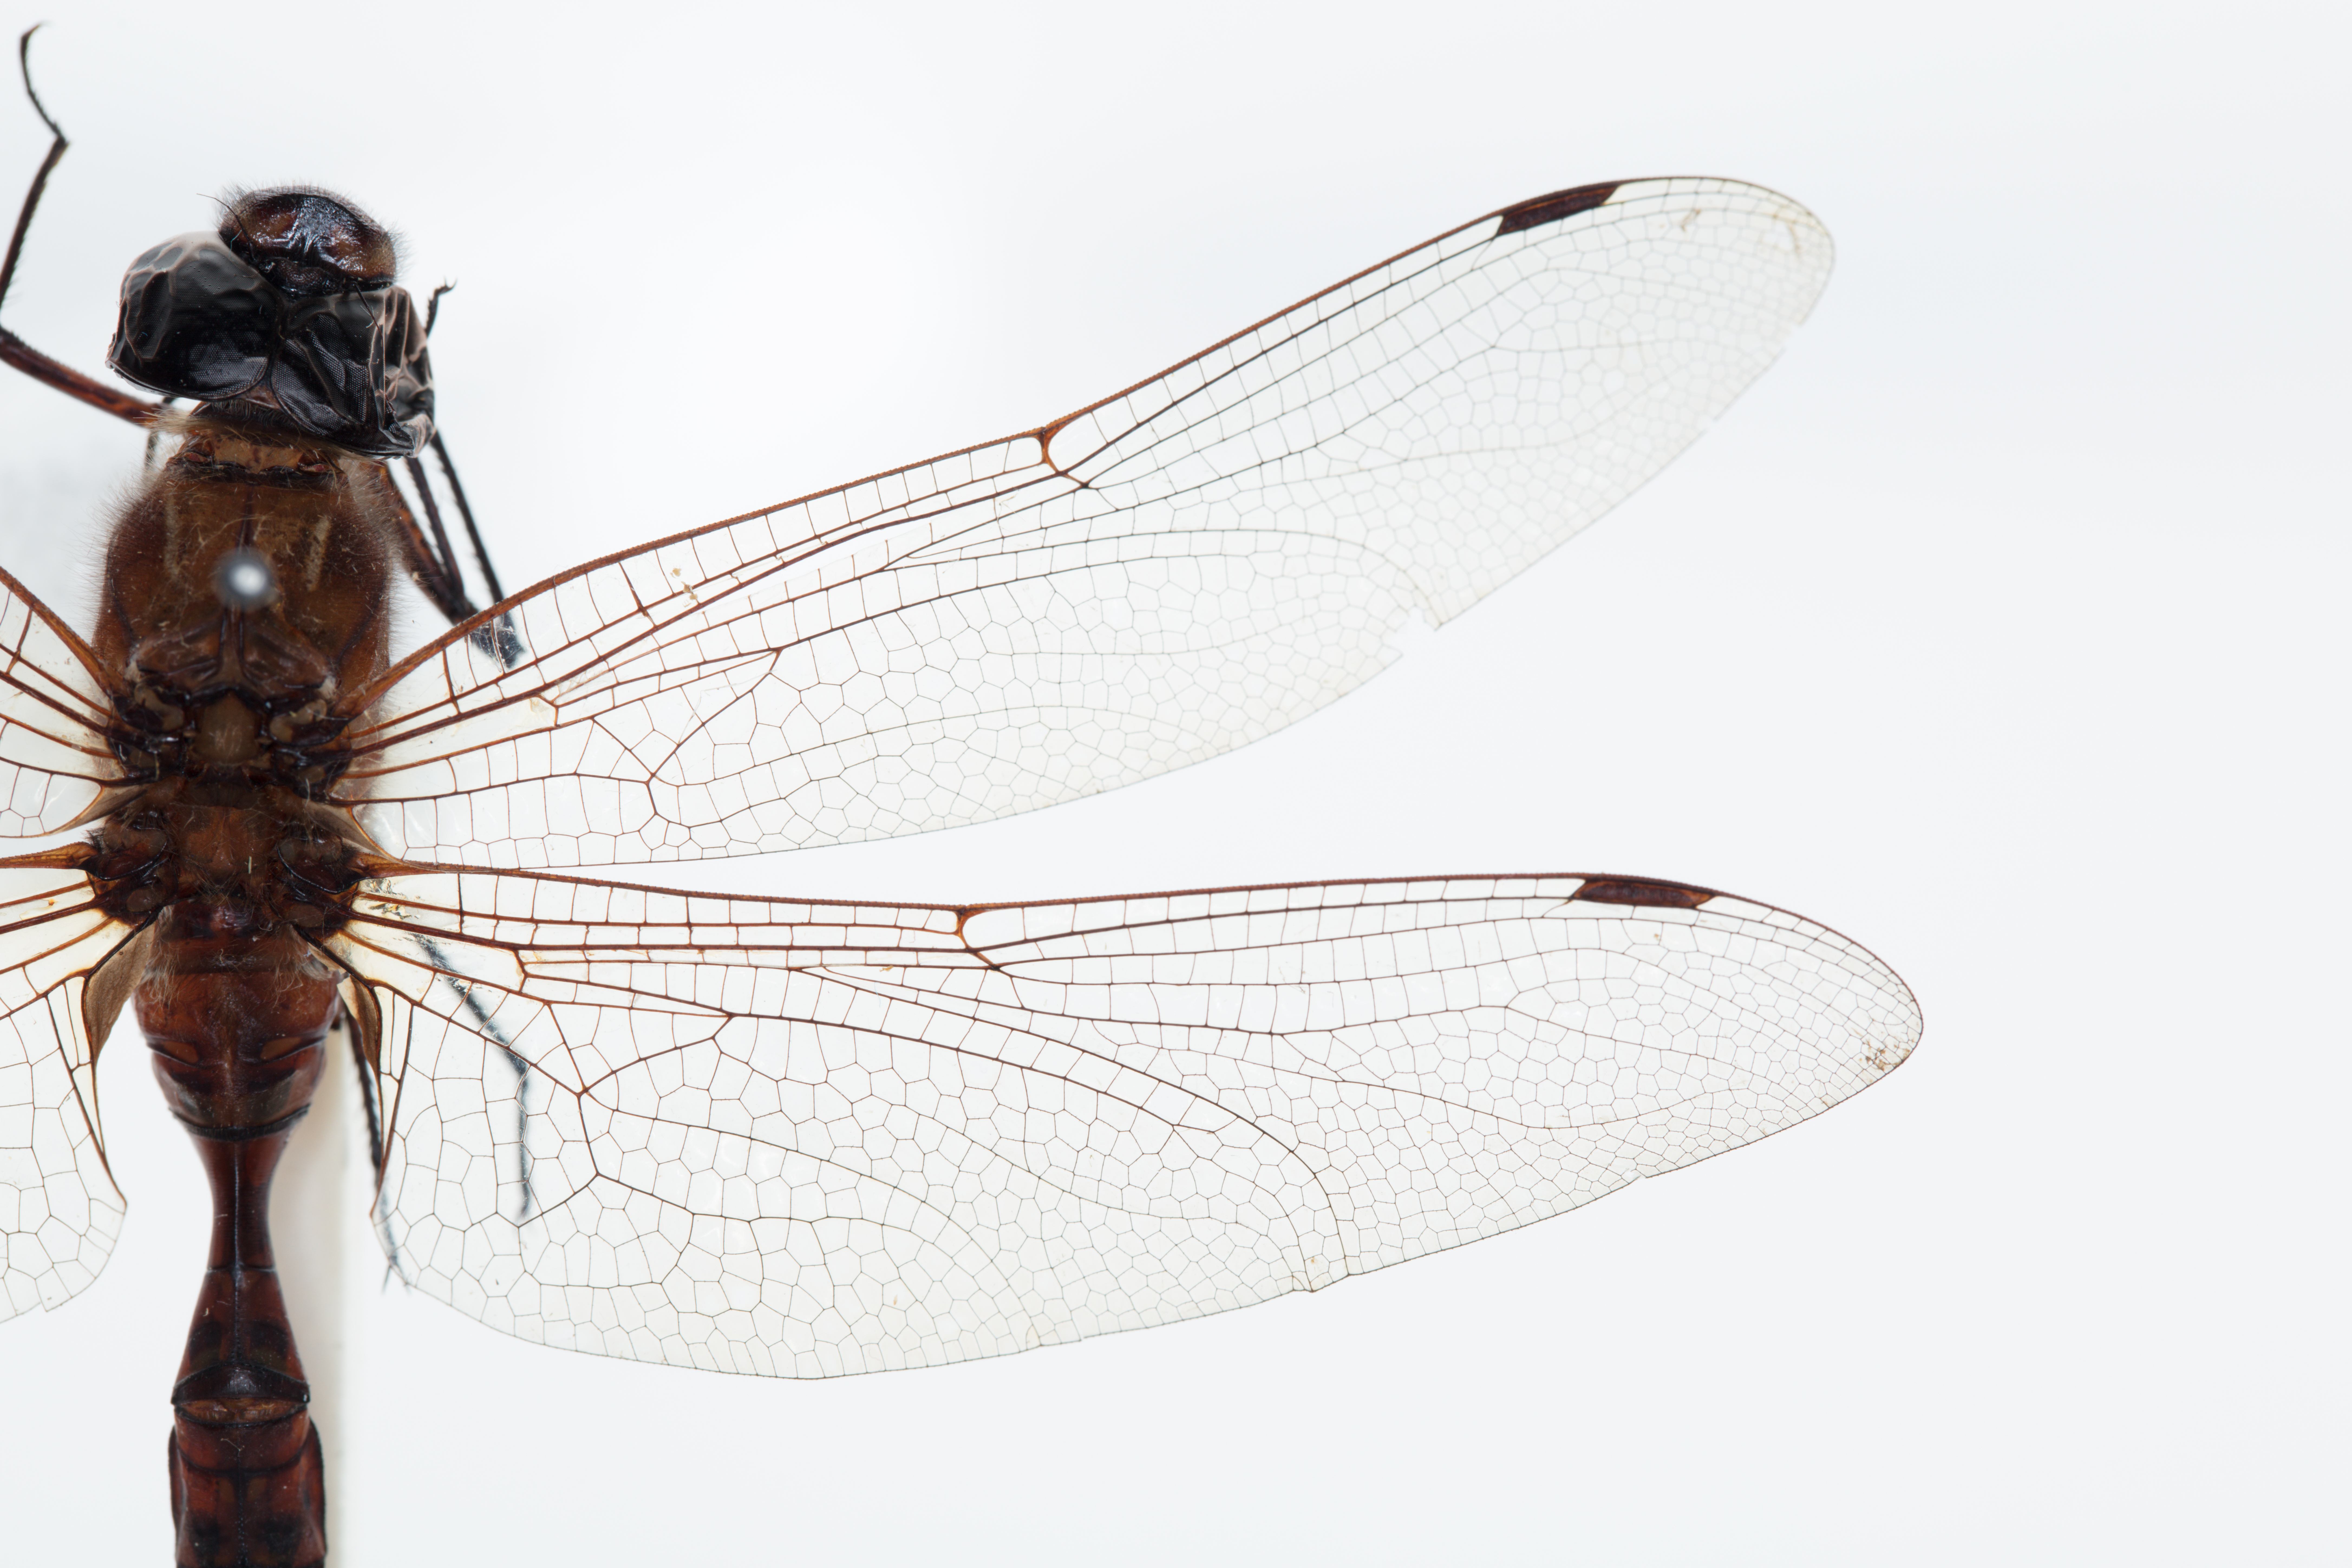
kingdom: Animalia
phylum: Arthropoda
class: Insecta
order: Odonata
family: Aeshnidae
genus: Aeshna
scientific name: Aeshna brevistyla
